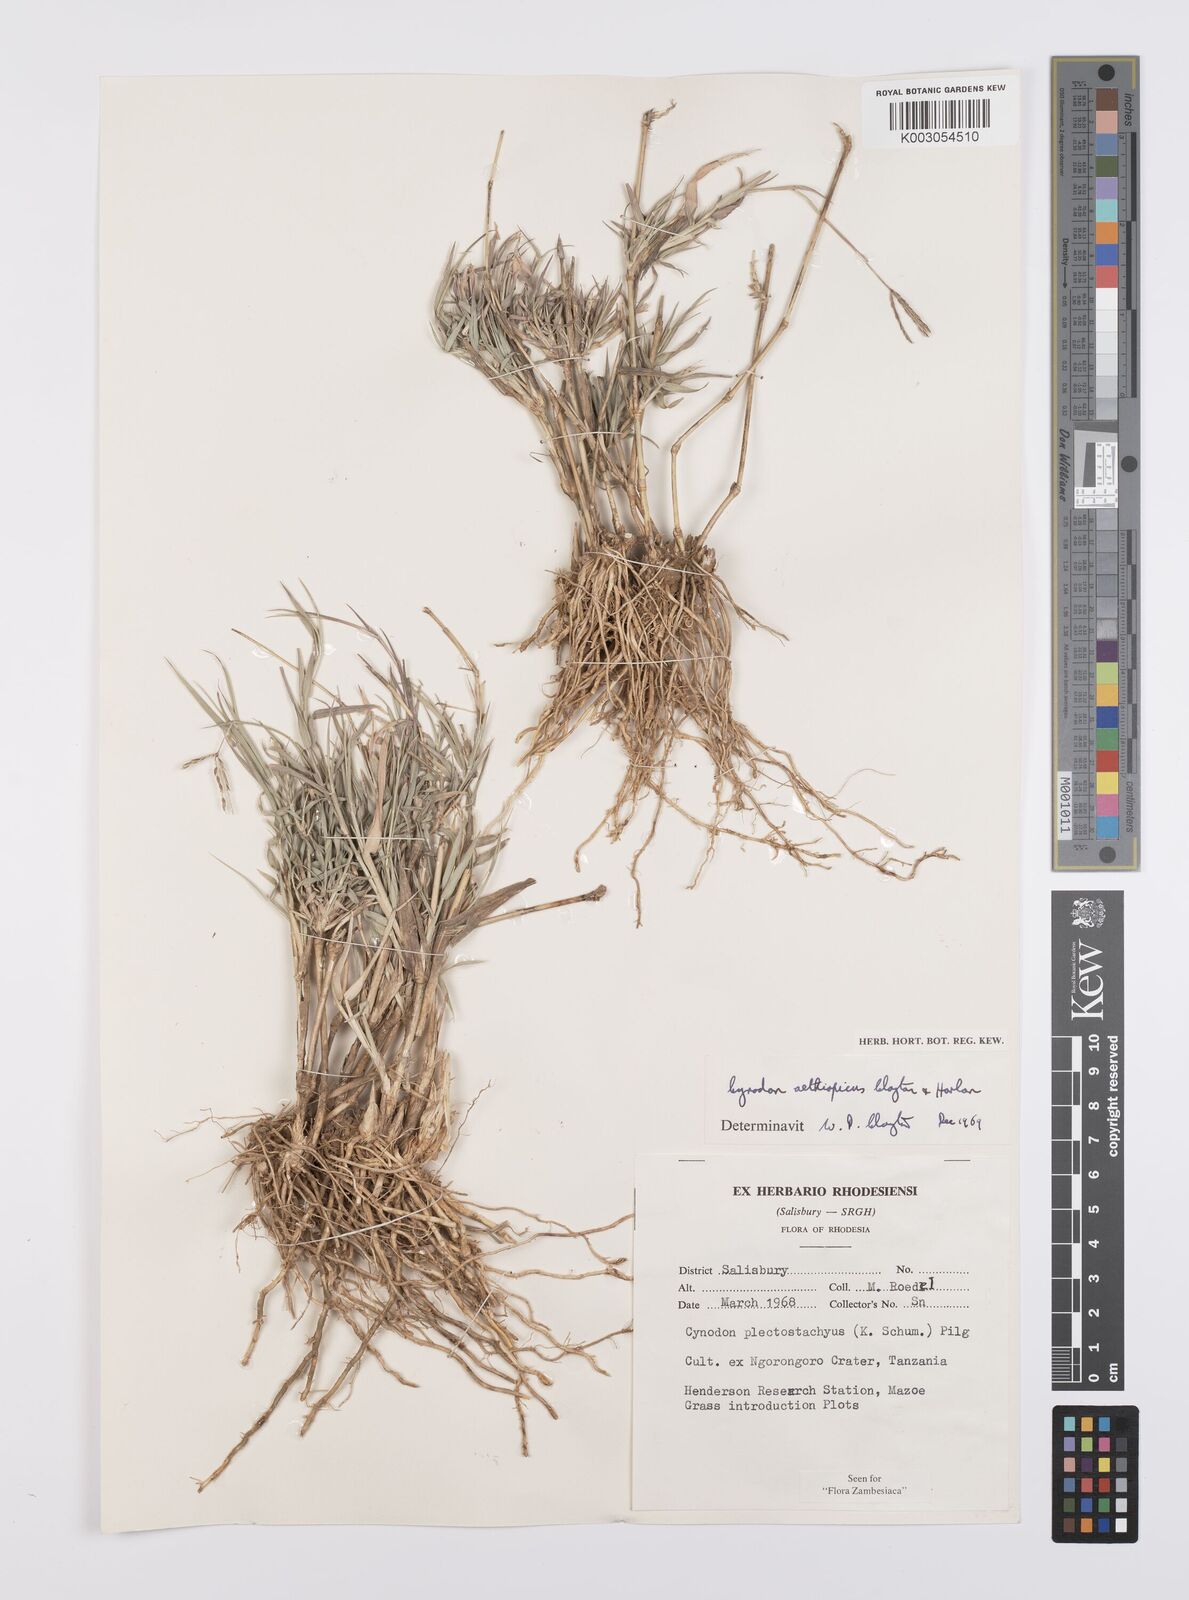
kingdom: Plantae
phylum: Tracheophyta
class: Liliopsida
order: Poales
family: Poaceae
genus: Cynodon
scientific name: Cynodon aethiopicus
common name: Ethiopian dogstooth grass
